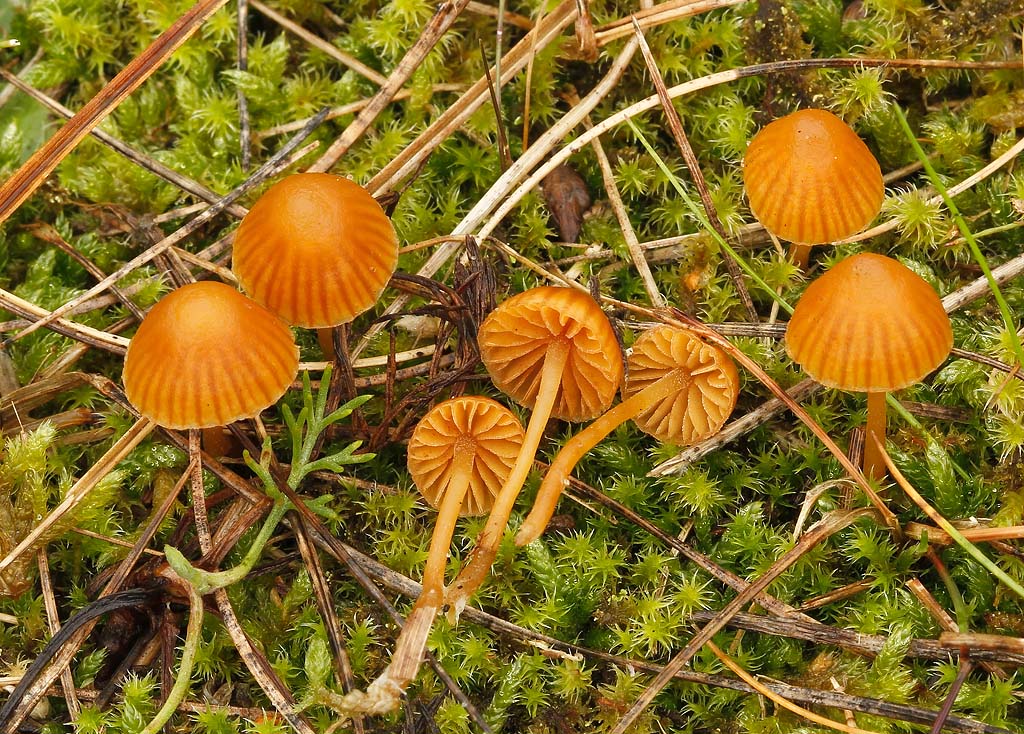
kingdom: Fungi
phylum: Basidiomycota
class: Agaricomycetes
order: Agaricales
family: Hymenogastraceae
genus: Galerina
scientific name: Galerina vittiformis
